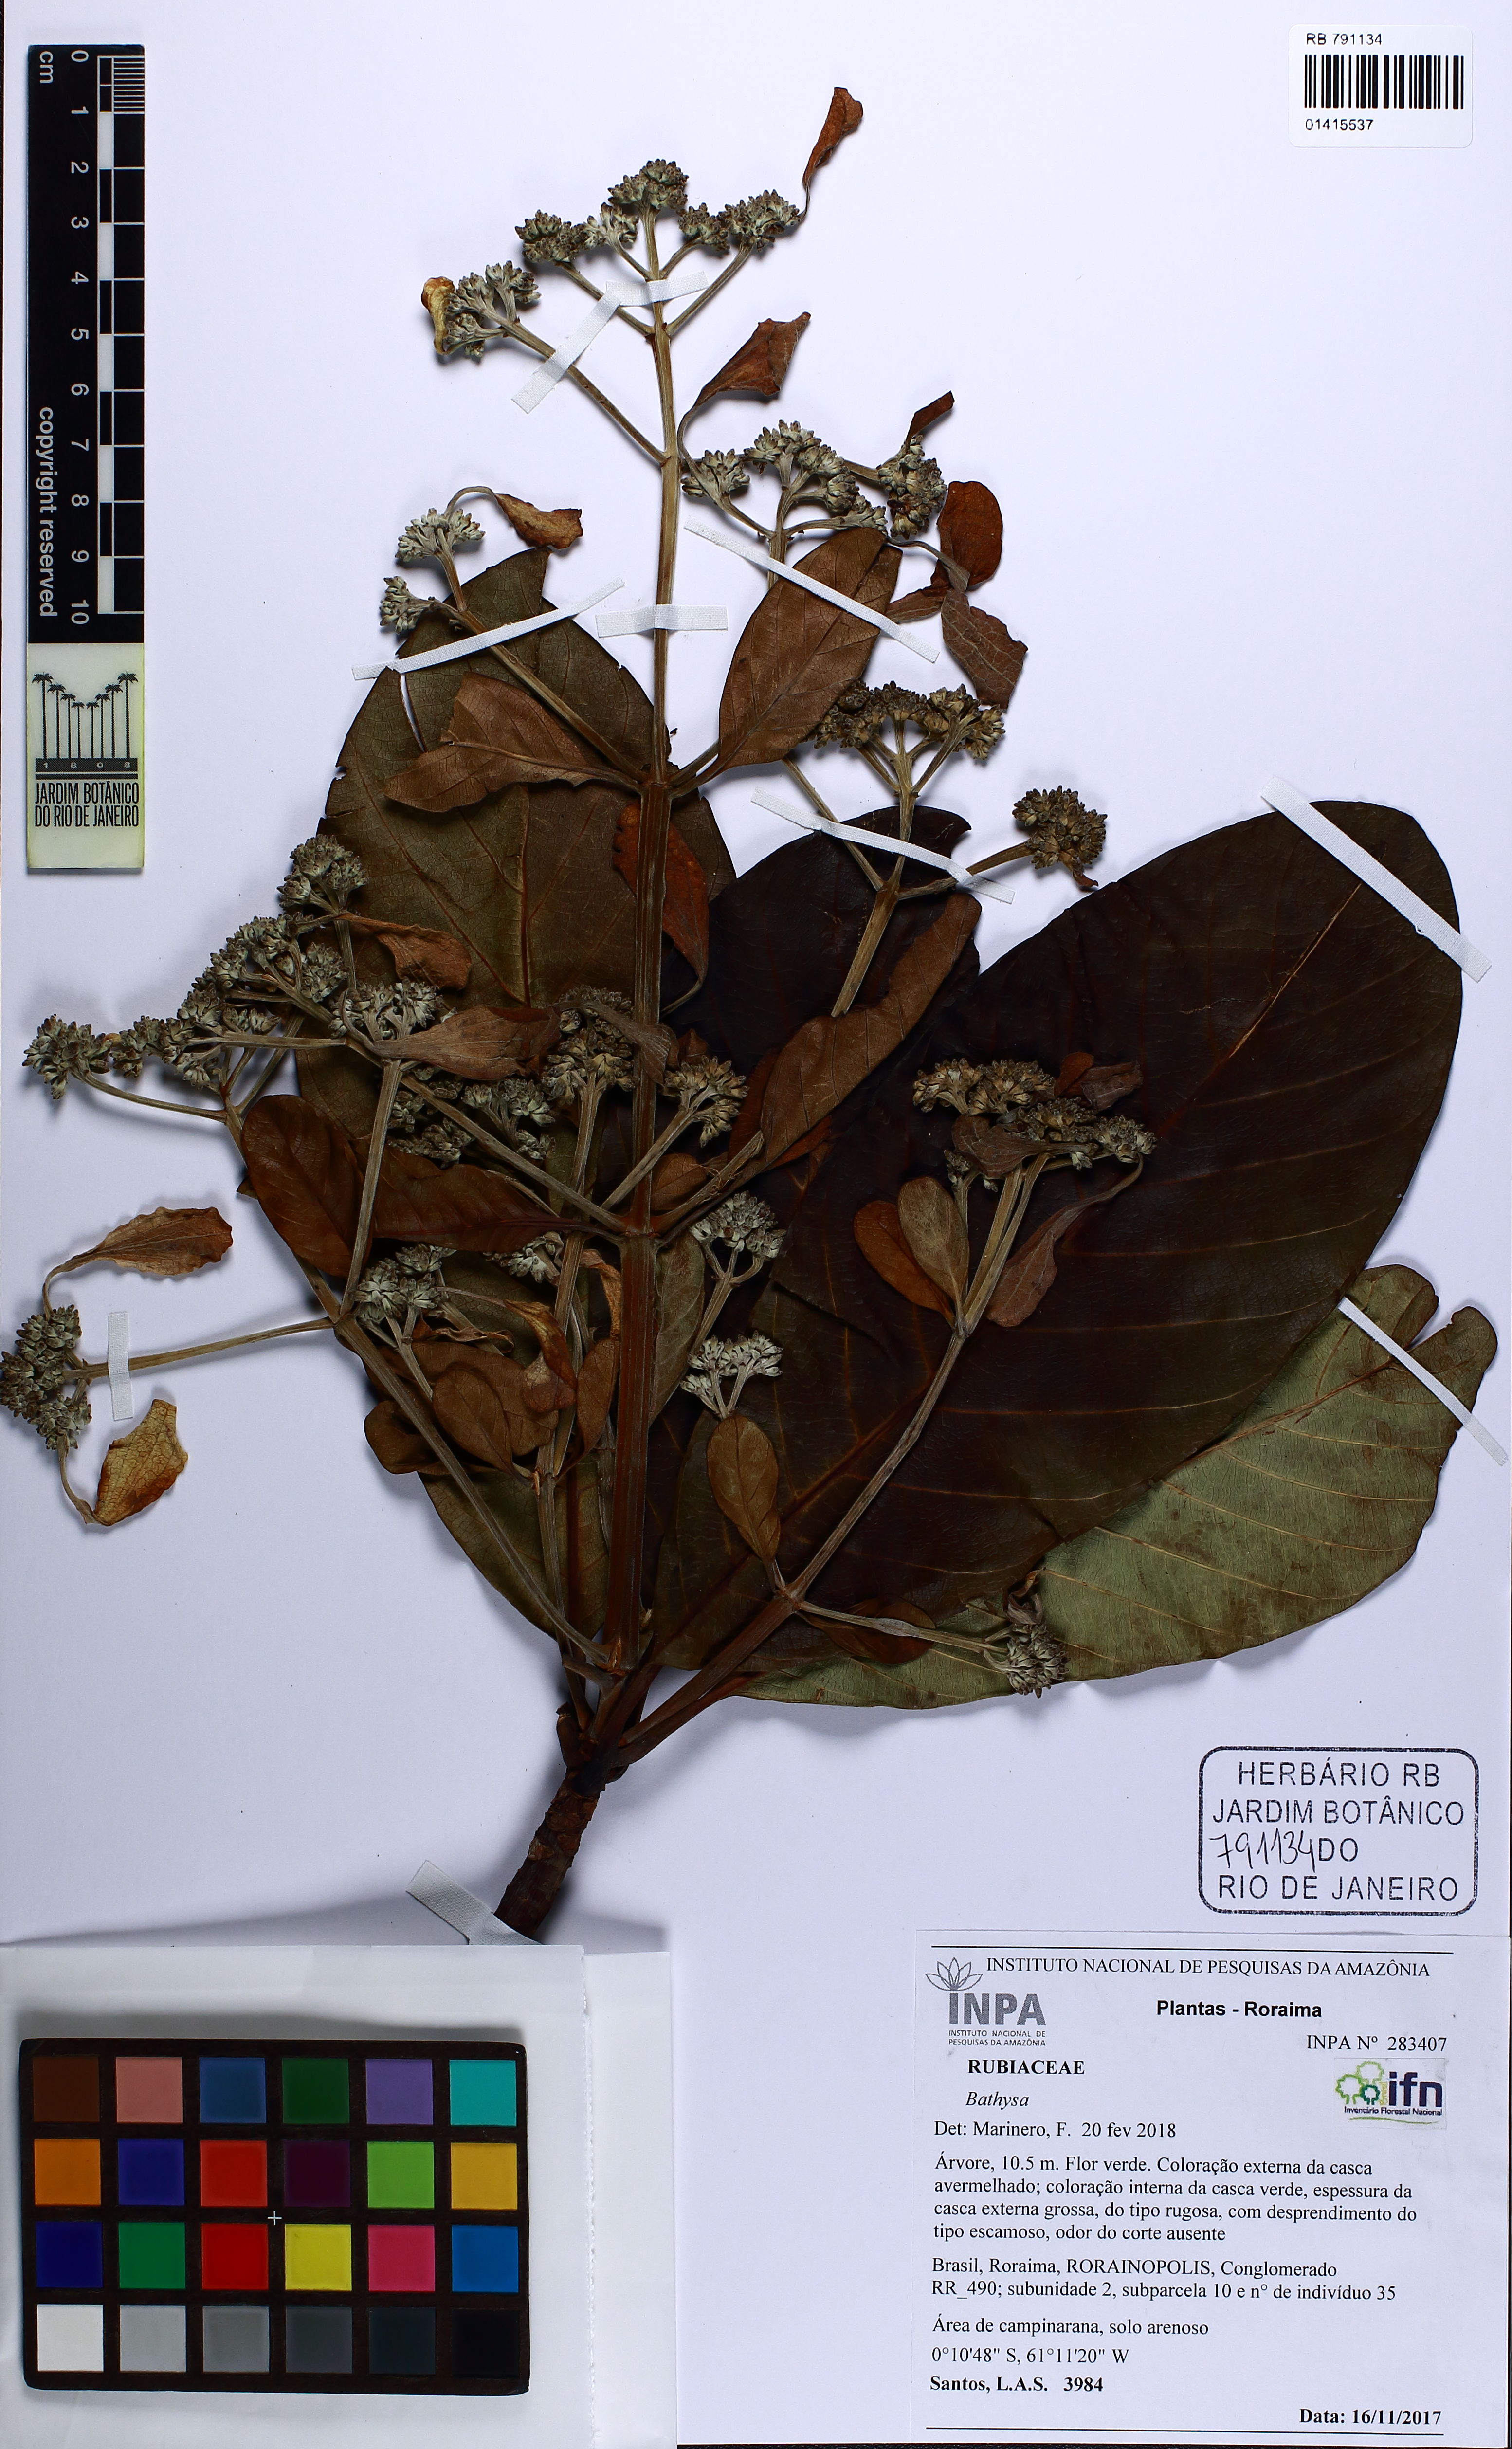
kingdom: Plantae
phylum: Tracheophyta
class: Magnoliopsida
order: Gentianales
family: Rubiaceae
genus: Bathysa
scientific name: Bathysa
